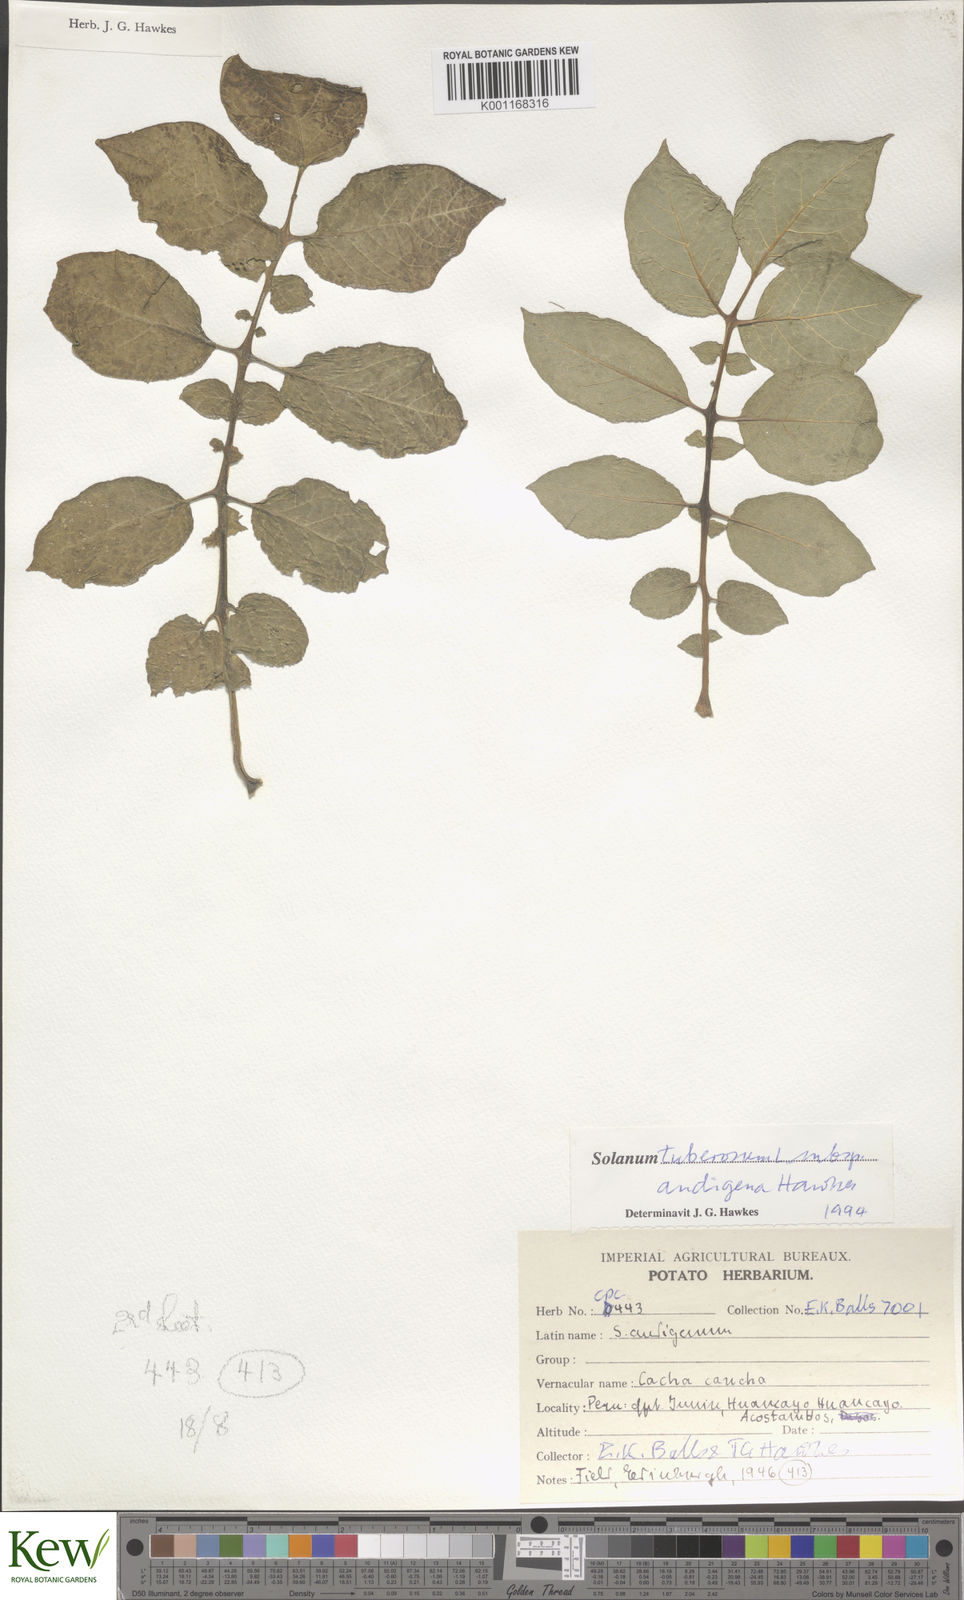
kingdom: Plantae
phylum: Tracheophyta
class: Magnoliopsida
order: Solanales
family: Solanaceae
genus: Solanum
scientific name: Solanum tuberosum
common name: Potato
